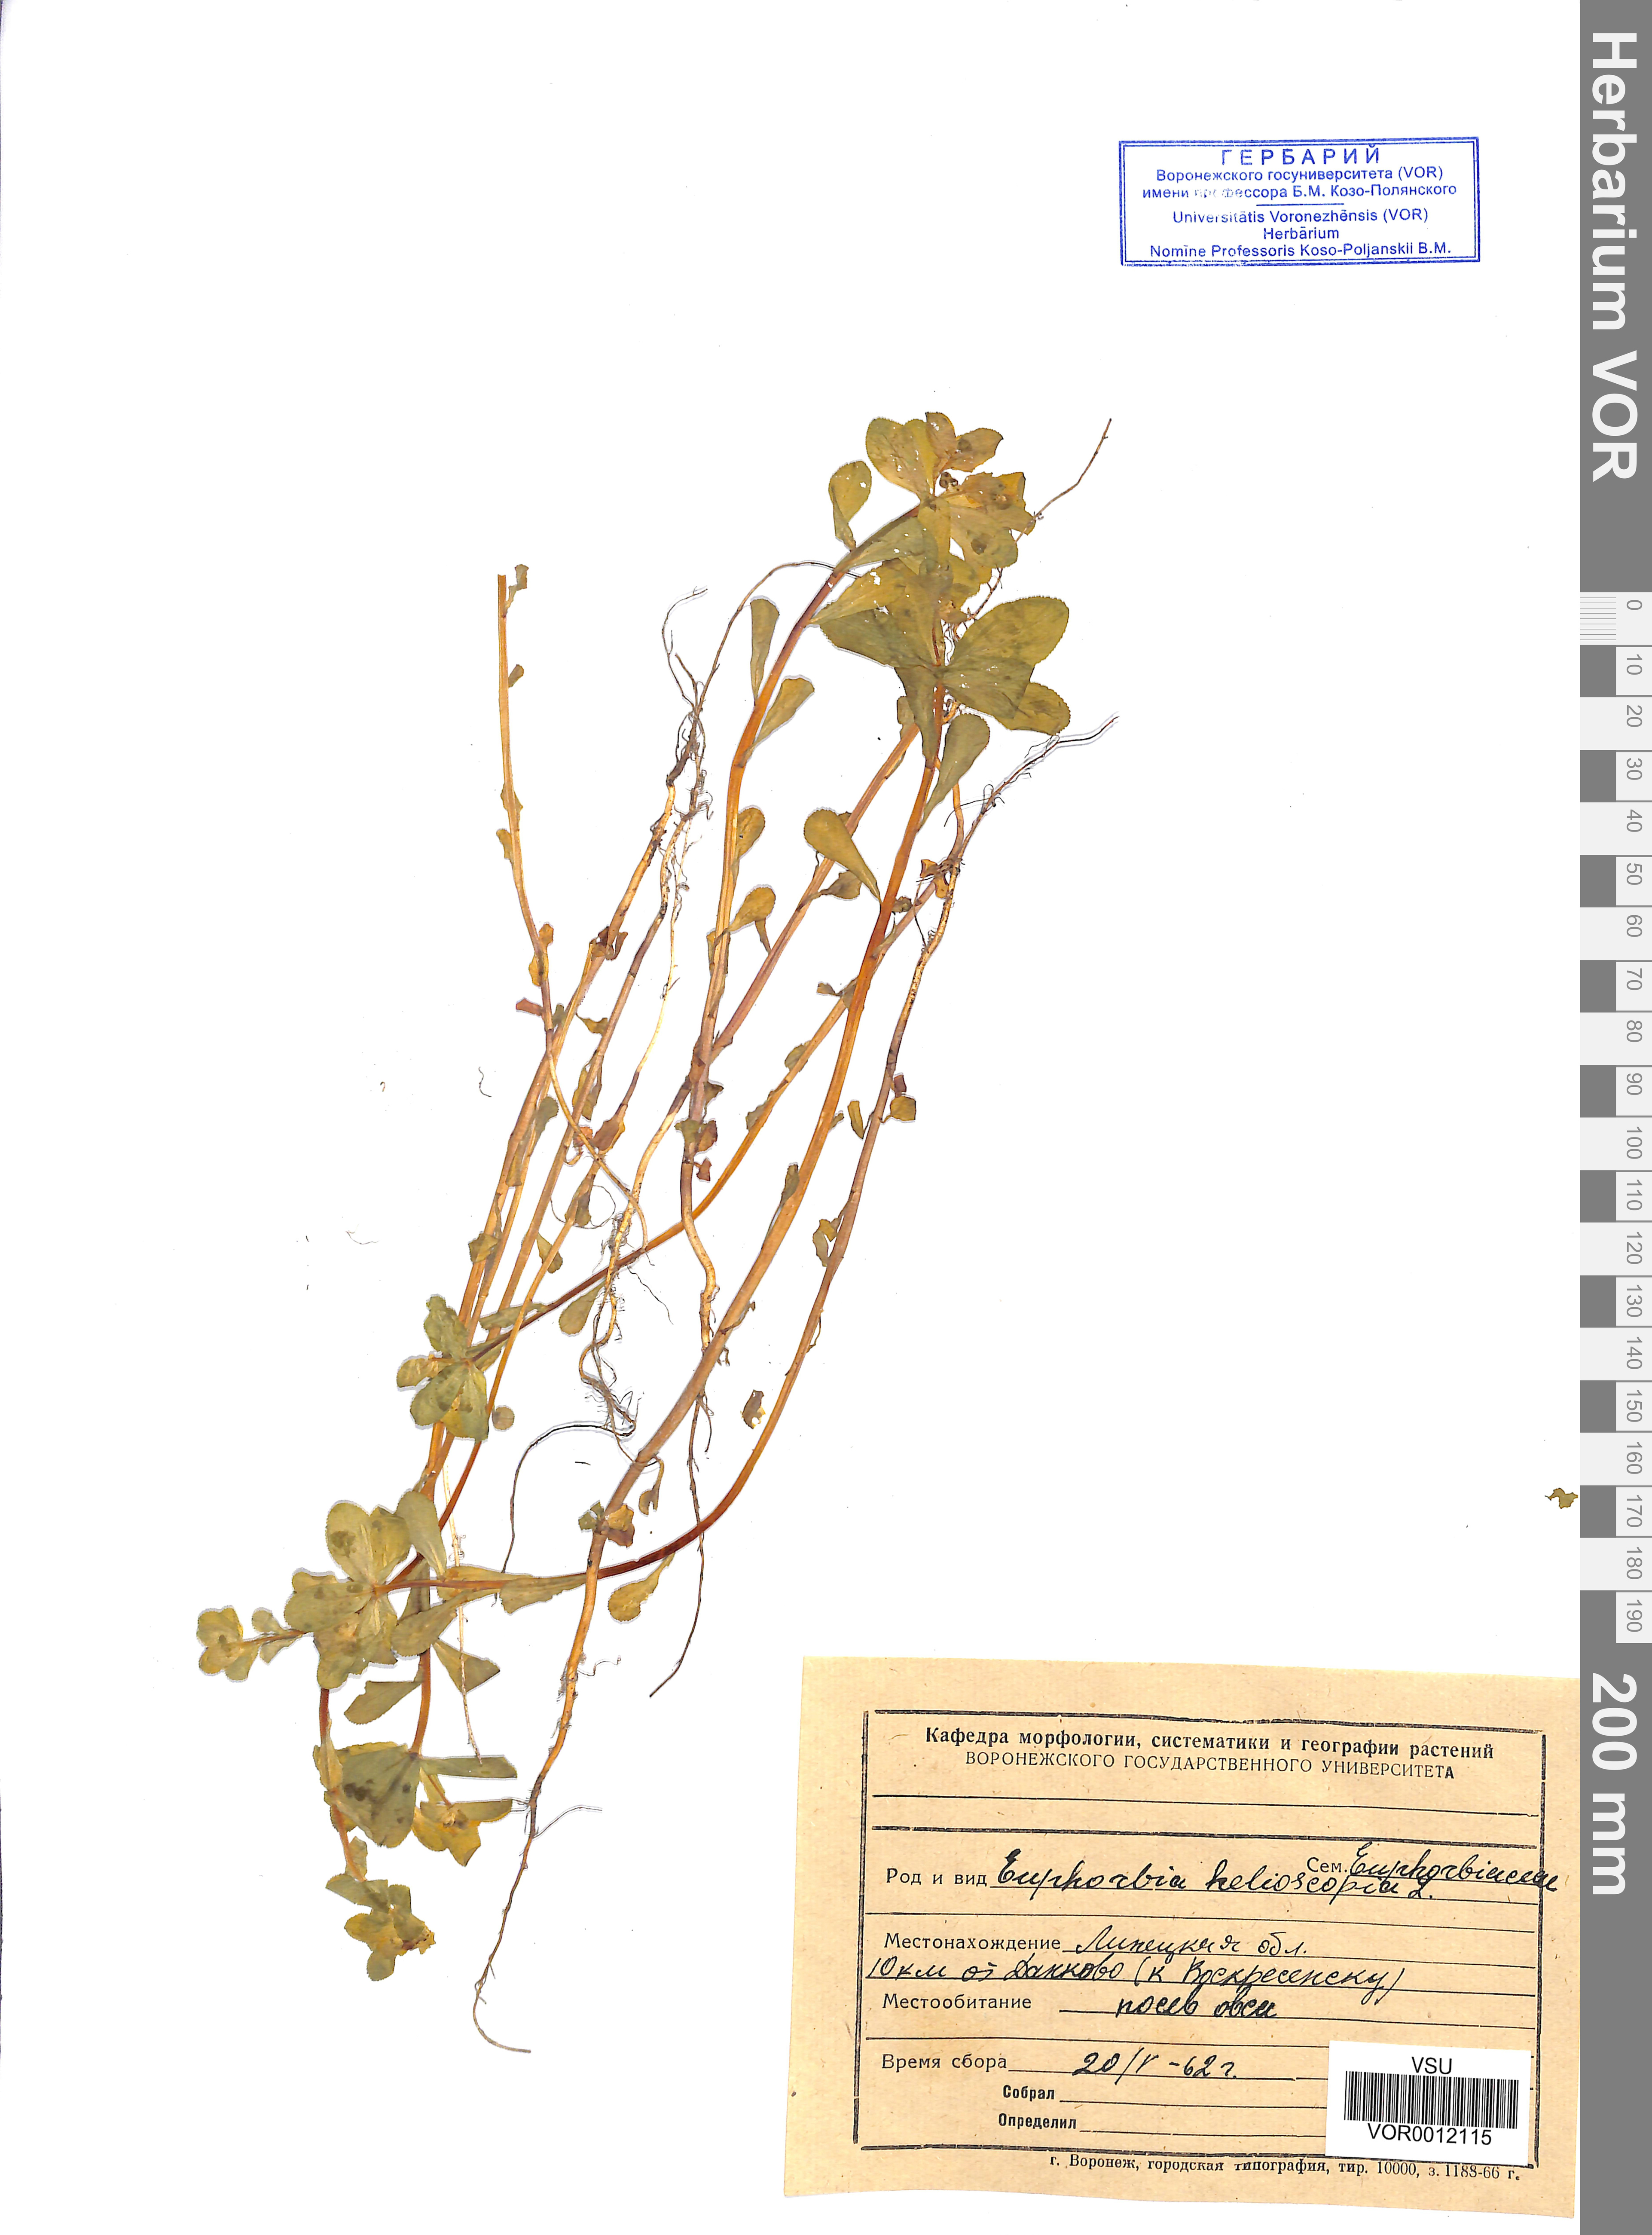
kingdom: Plantae
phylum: Tracheophyta
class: Magnoliopsida
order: Malpighiales
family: Euphorbiaceae
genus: Euphorbia
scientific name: Euphorbia helioscopia
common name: Sun spurge
